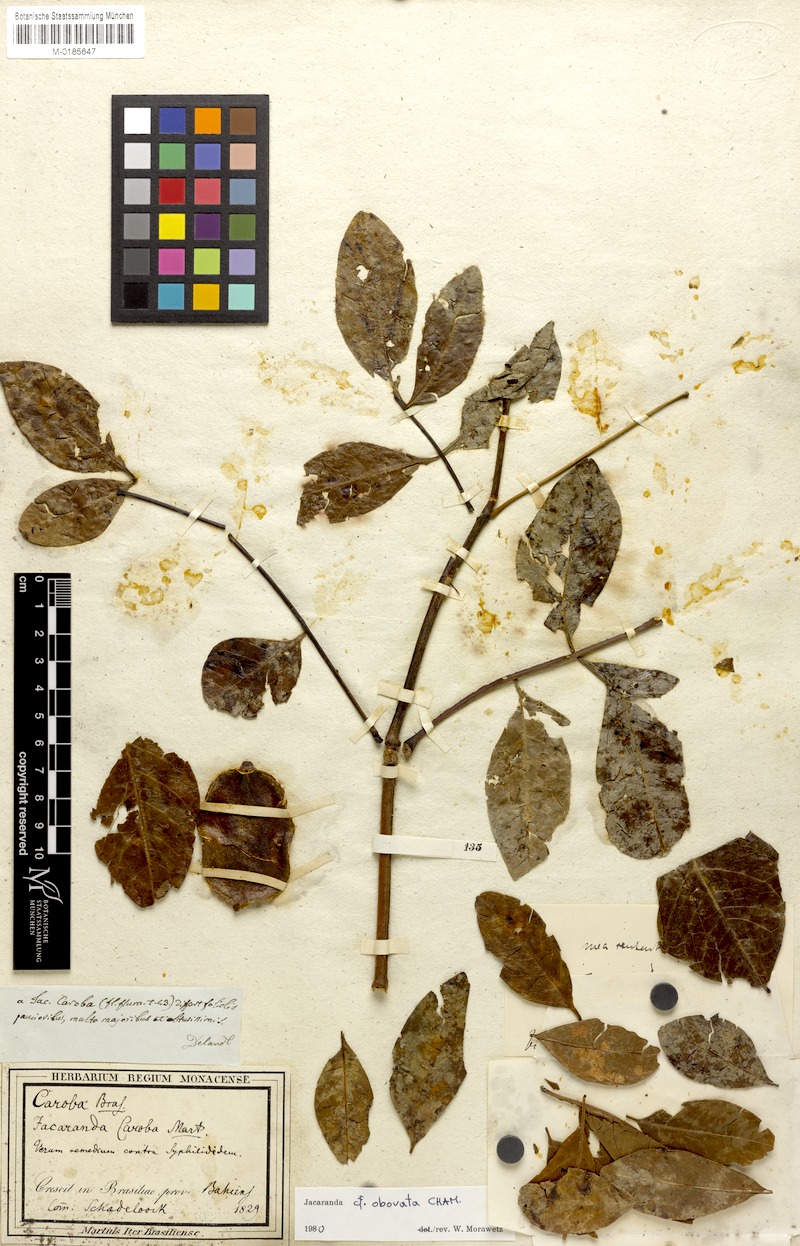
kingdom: Plantae
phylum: Tracheophyta
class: Magnoliopsida
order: Lamiales
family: Bignoniaceae
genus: Jacaranda
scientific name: Jacaranda obovata
